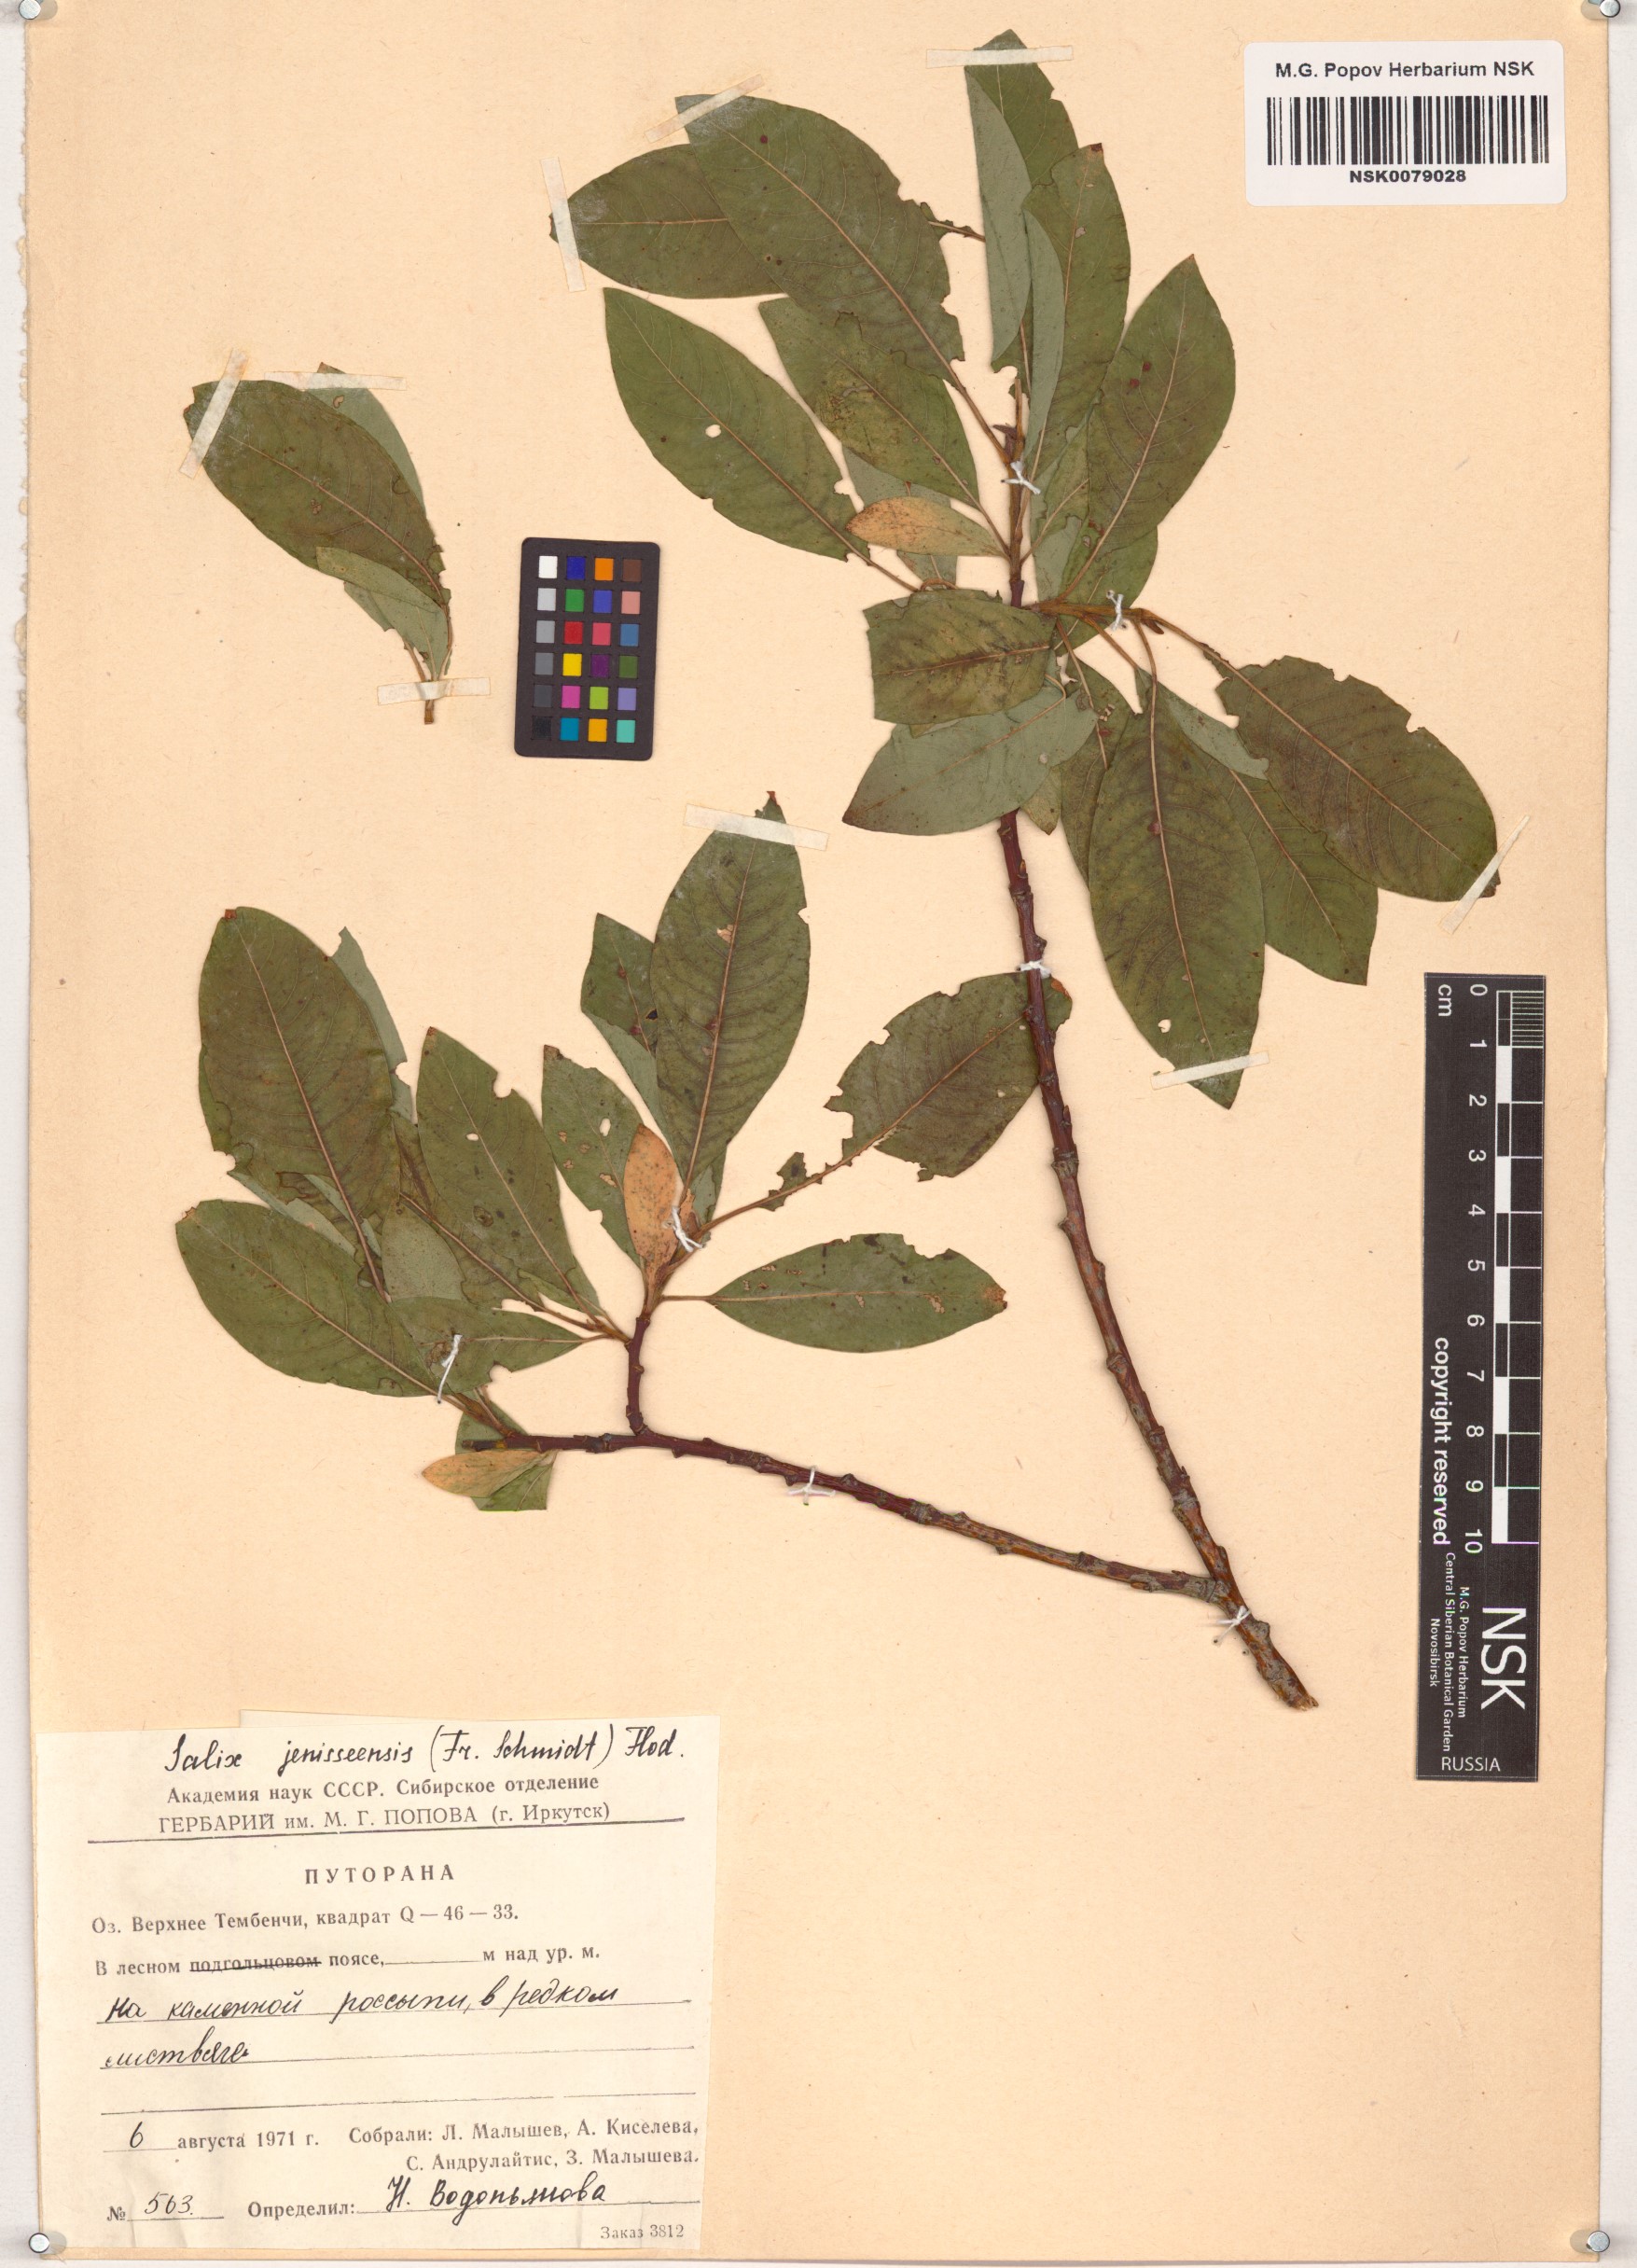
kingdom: Plantae
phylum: Tracheophyta
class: Magnoliopsida
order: Malpighiales
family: Salicaceae
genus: Salix
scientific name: Salix jenisseensis
